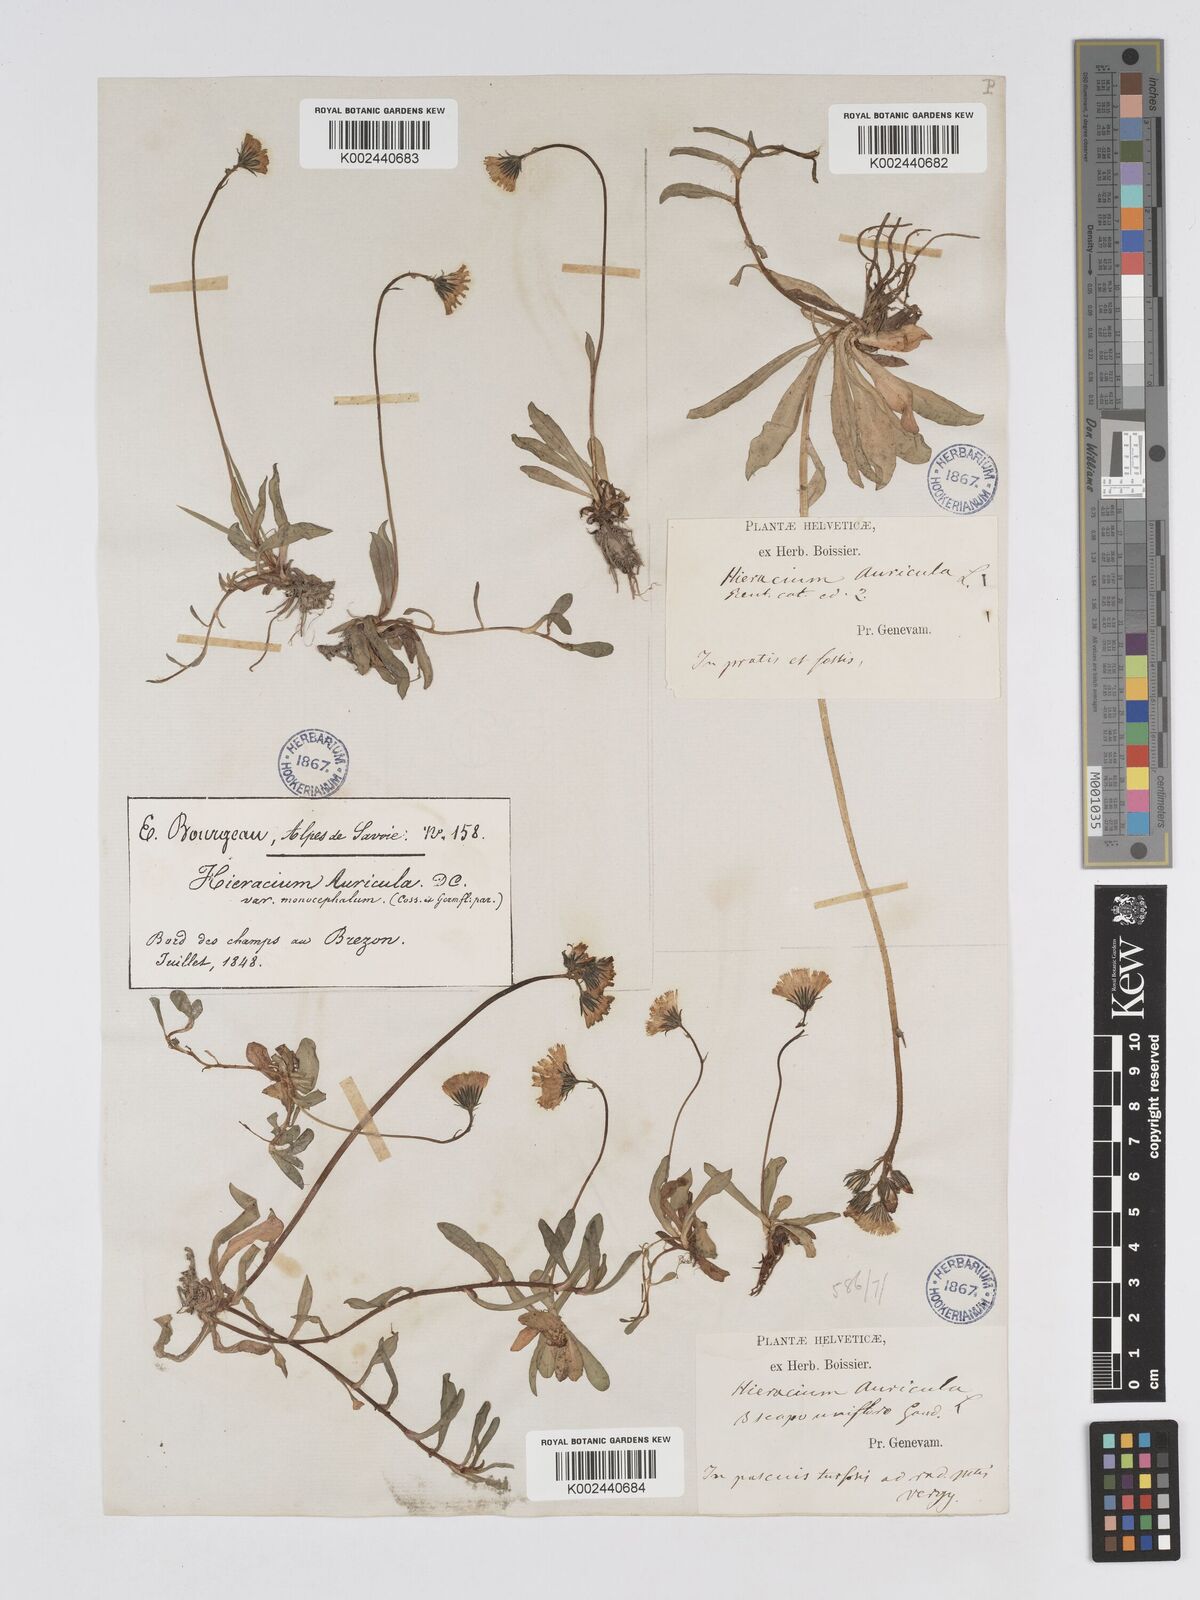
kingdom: Plantae
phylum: Tracheophyta
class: Magnoliopsida
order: Asterales
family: Asteraceae
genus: Pilosella
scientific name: Pilosella floribunda
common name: Glaucous hawkweed
